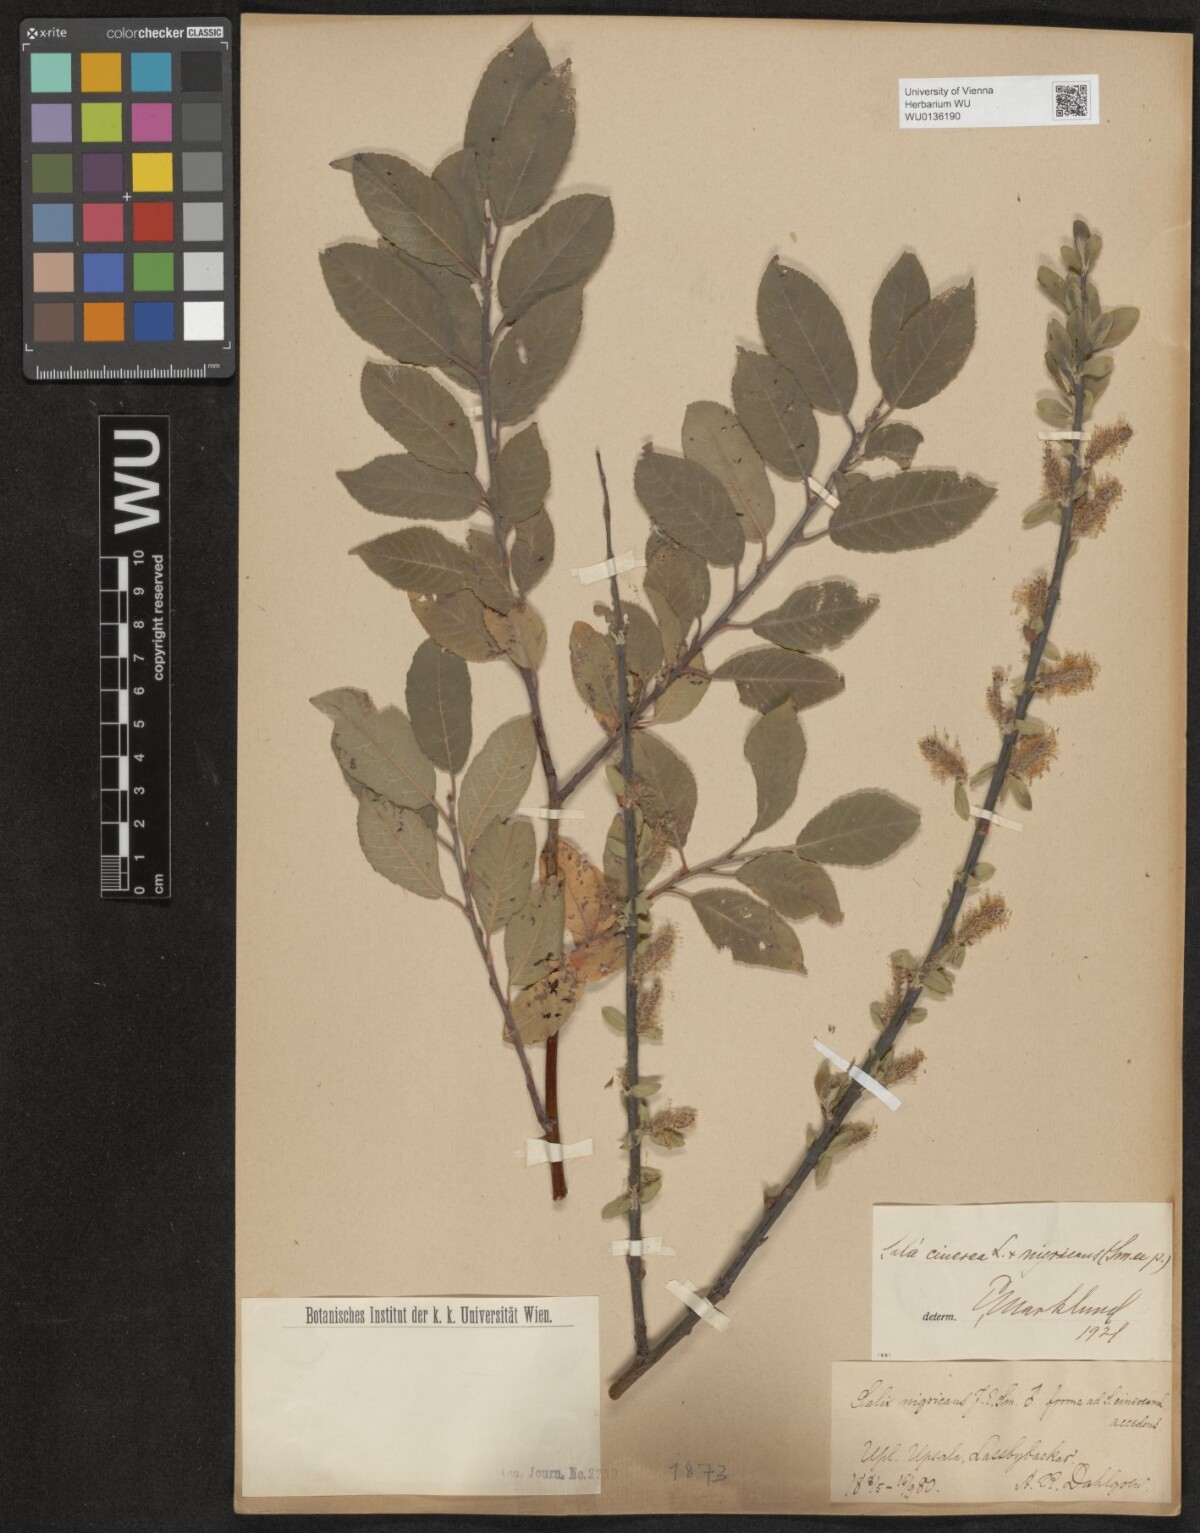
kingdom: Plantae
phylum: Tracheophyta
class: Magnoliopsida
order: Malpighiales
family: Salicaceae
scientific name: Salicaceae
